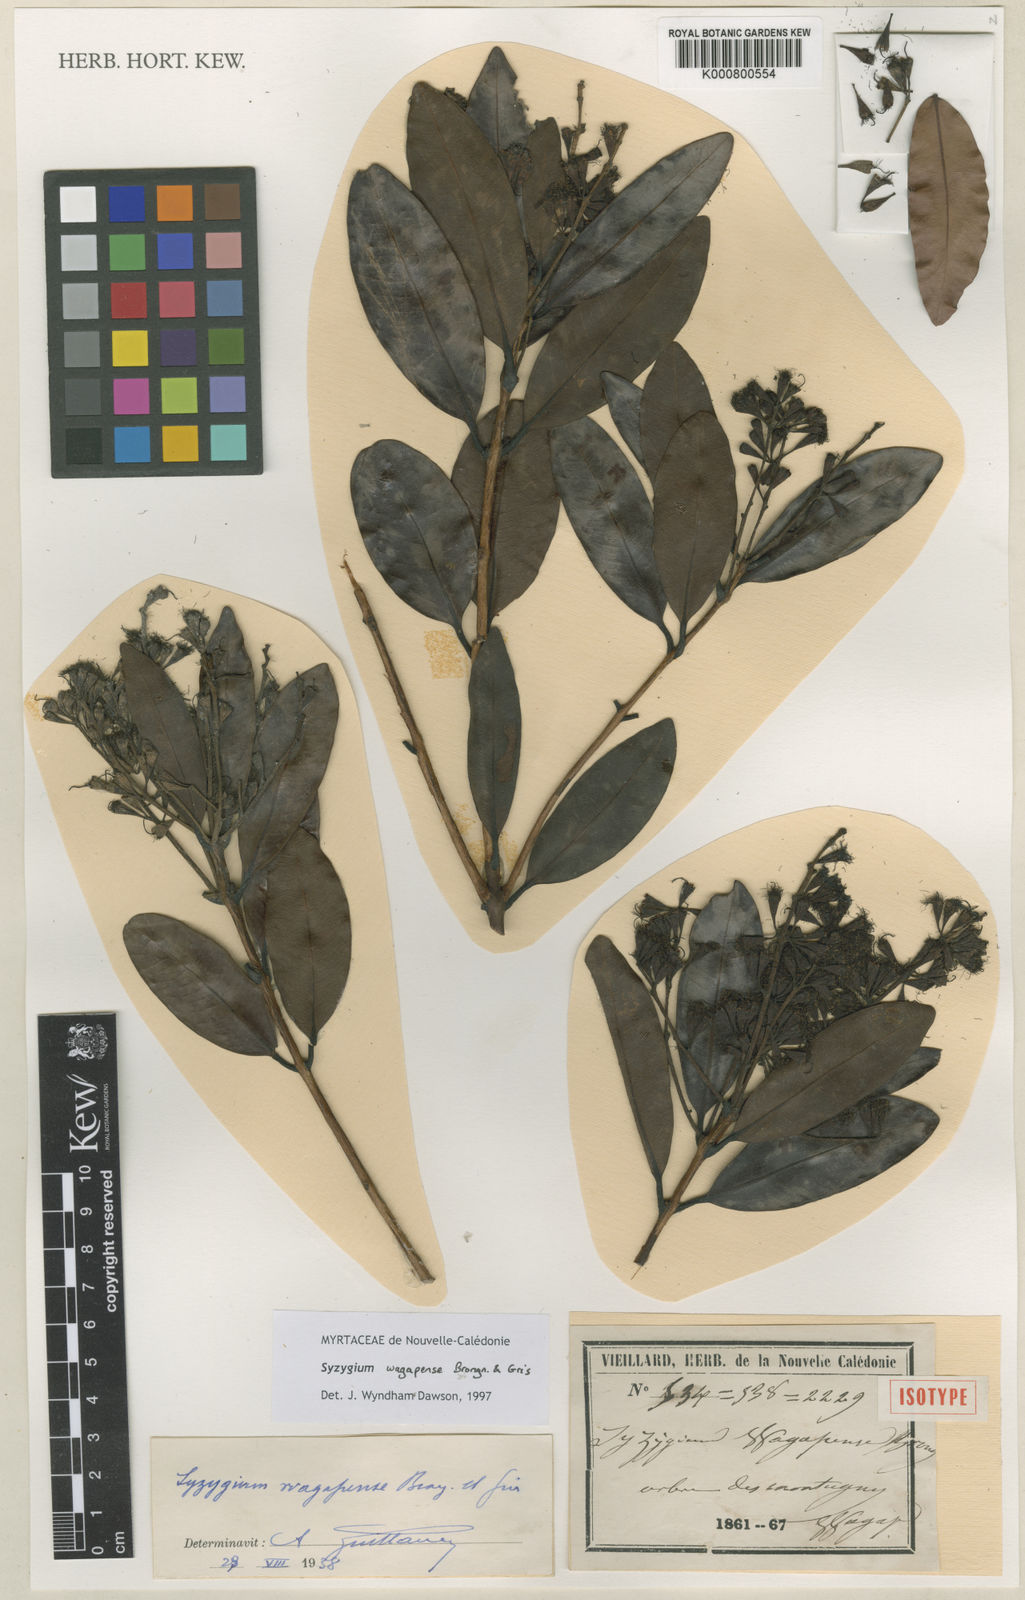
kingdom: Plantae
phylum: Tracheophyta
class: Magnoliopsida
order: Myrtales
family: Myrtaceae
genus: Syzygium
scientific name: Syzygium wagapense
